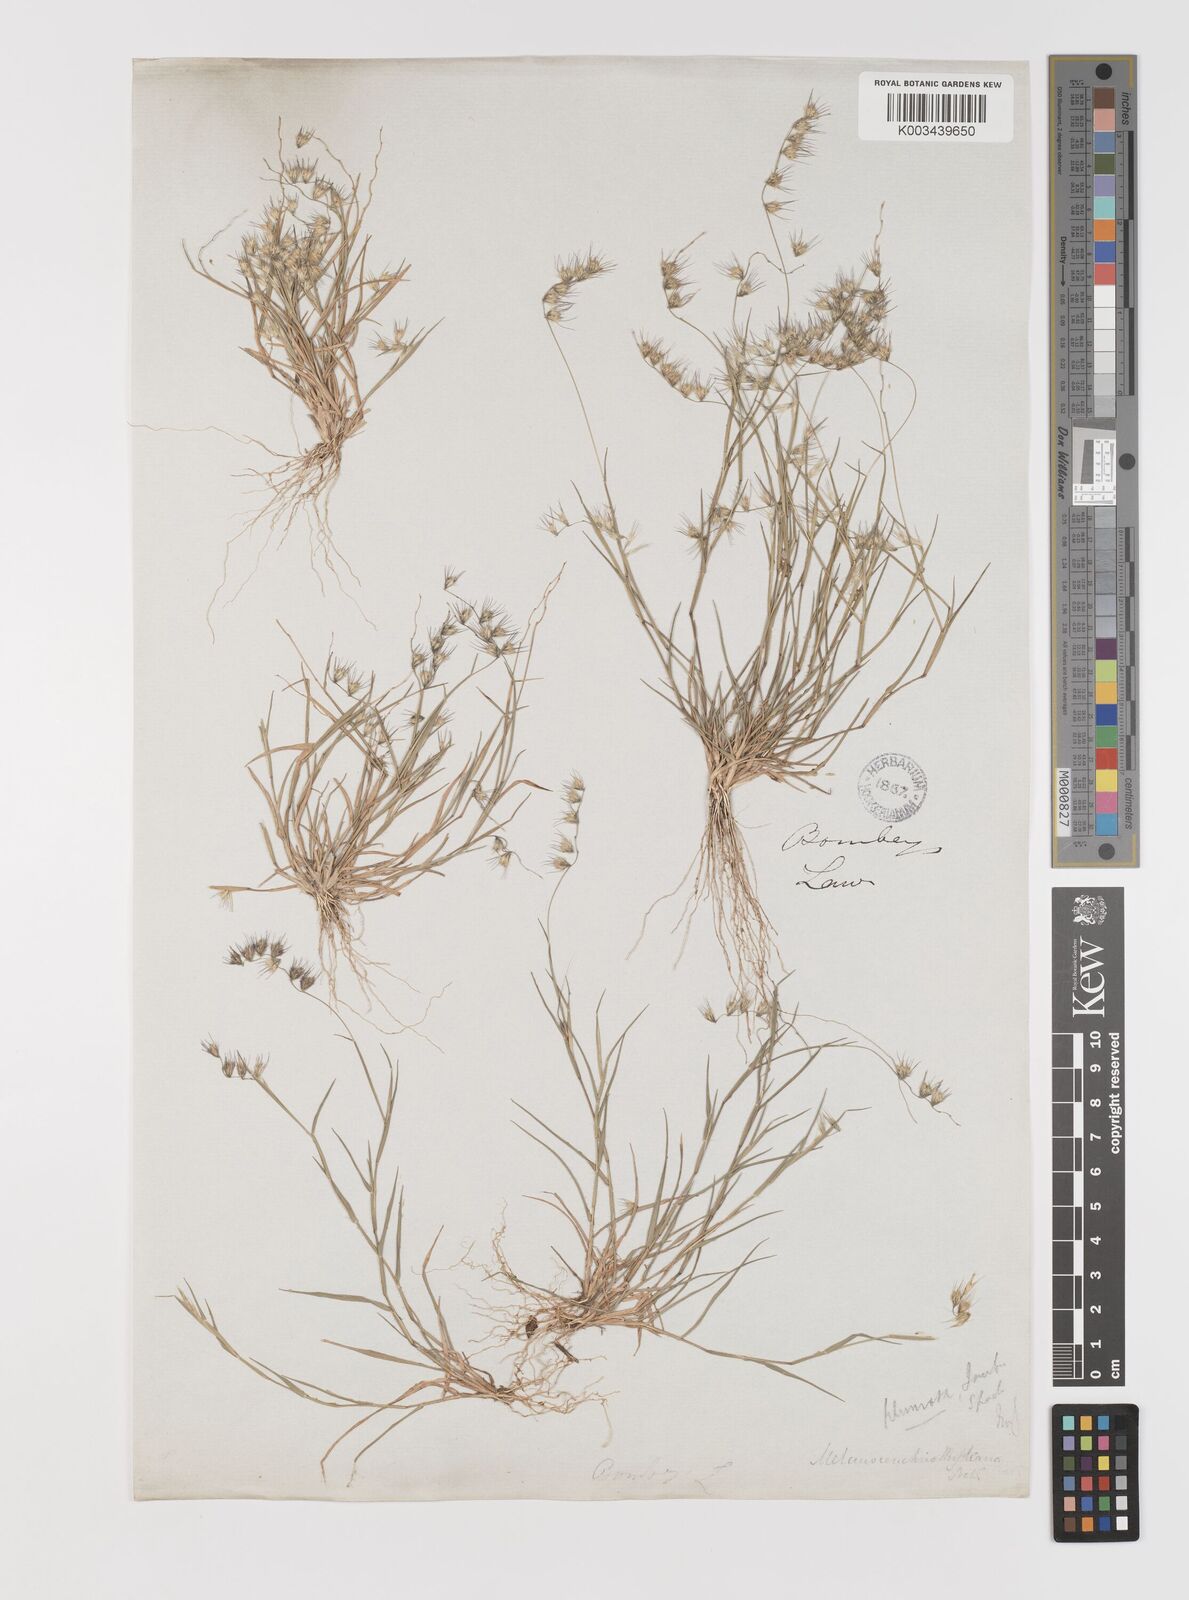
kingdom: Plantae
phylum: Tracheophyta
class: Liliopsida
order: Poales
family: Poaceae
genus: Melanocenchris
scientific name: Melanocenchris jacquemontii
